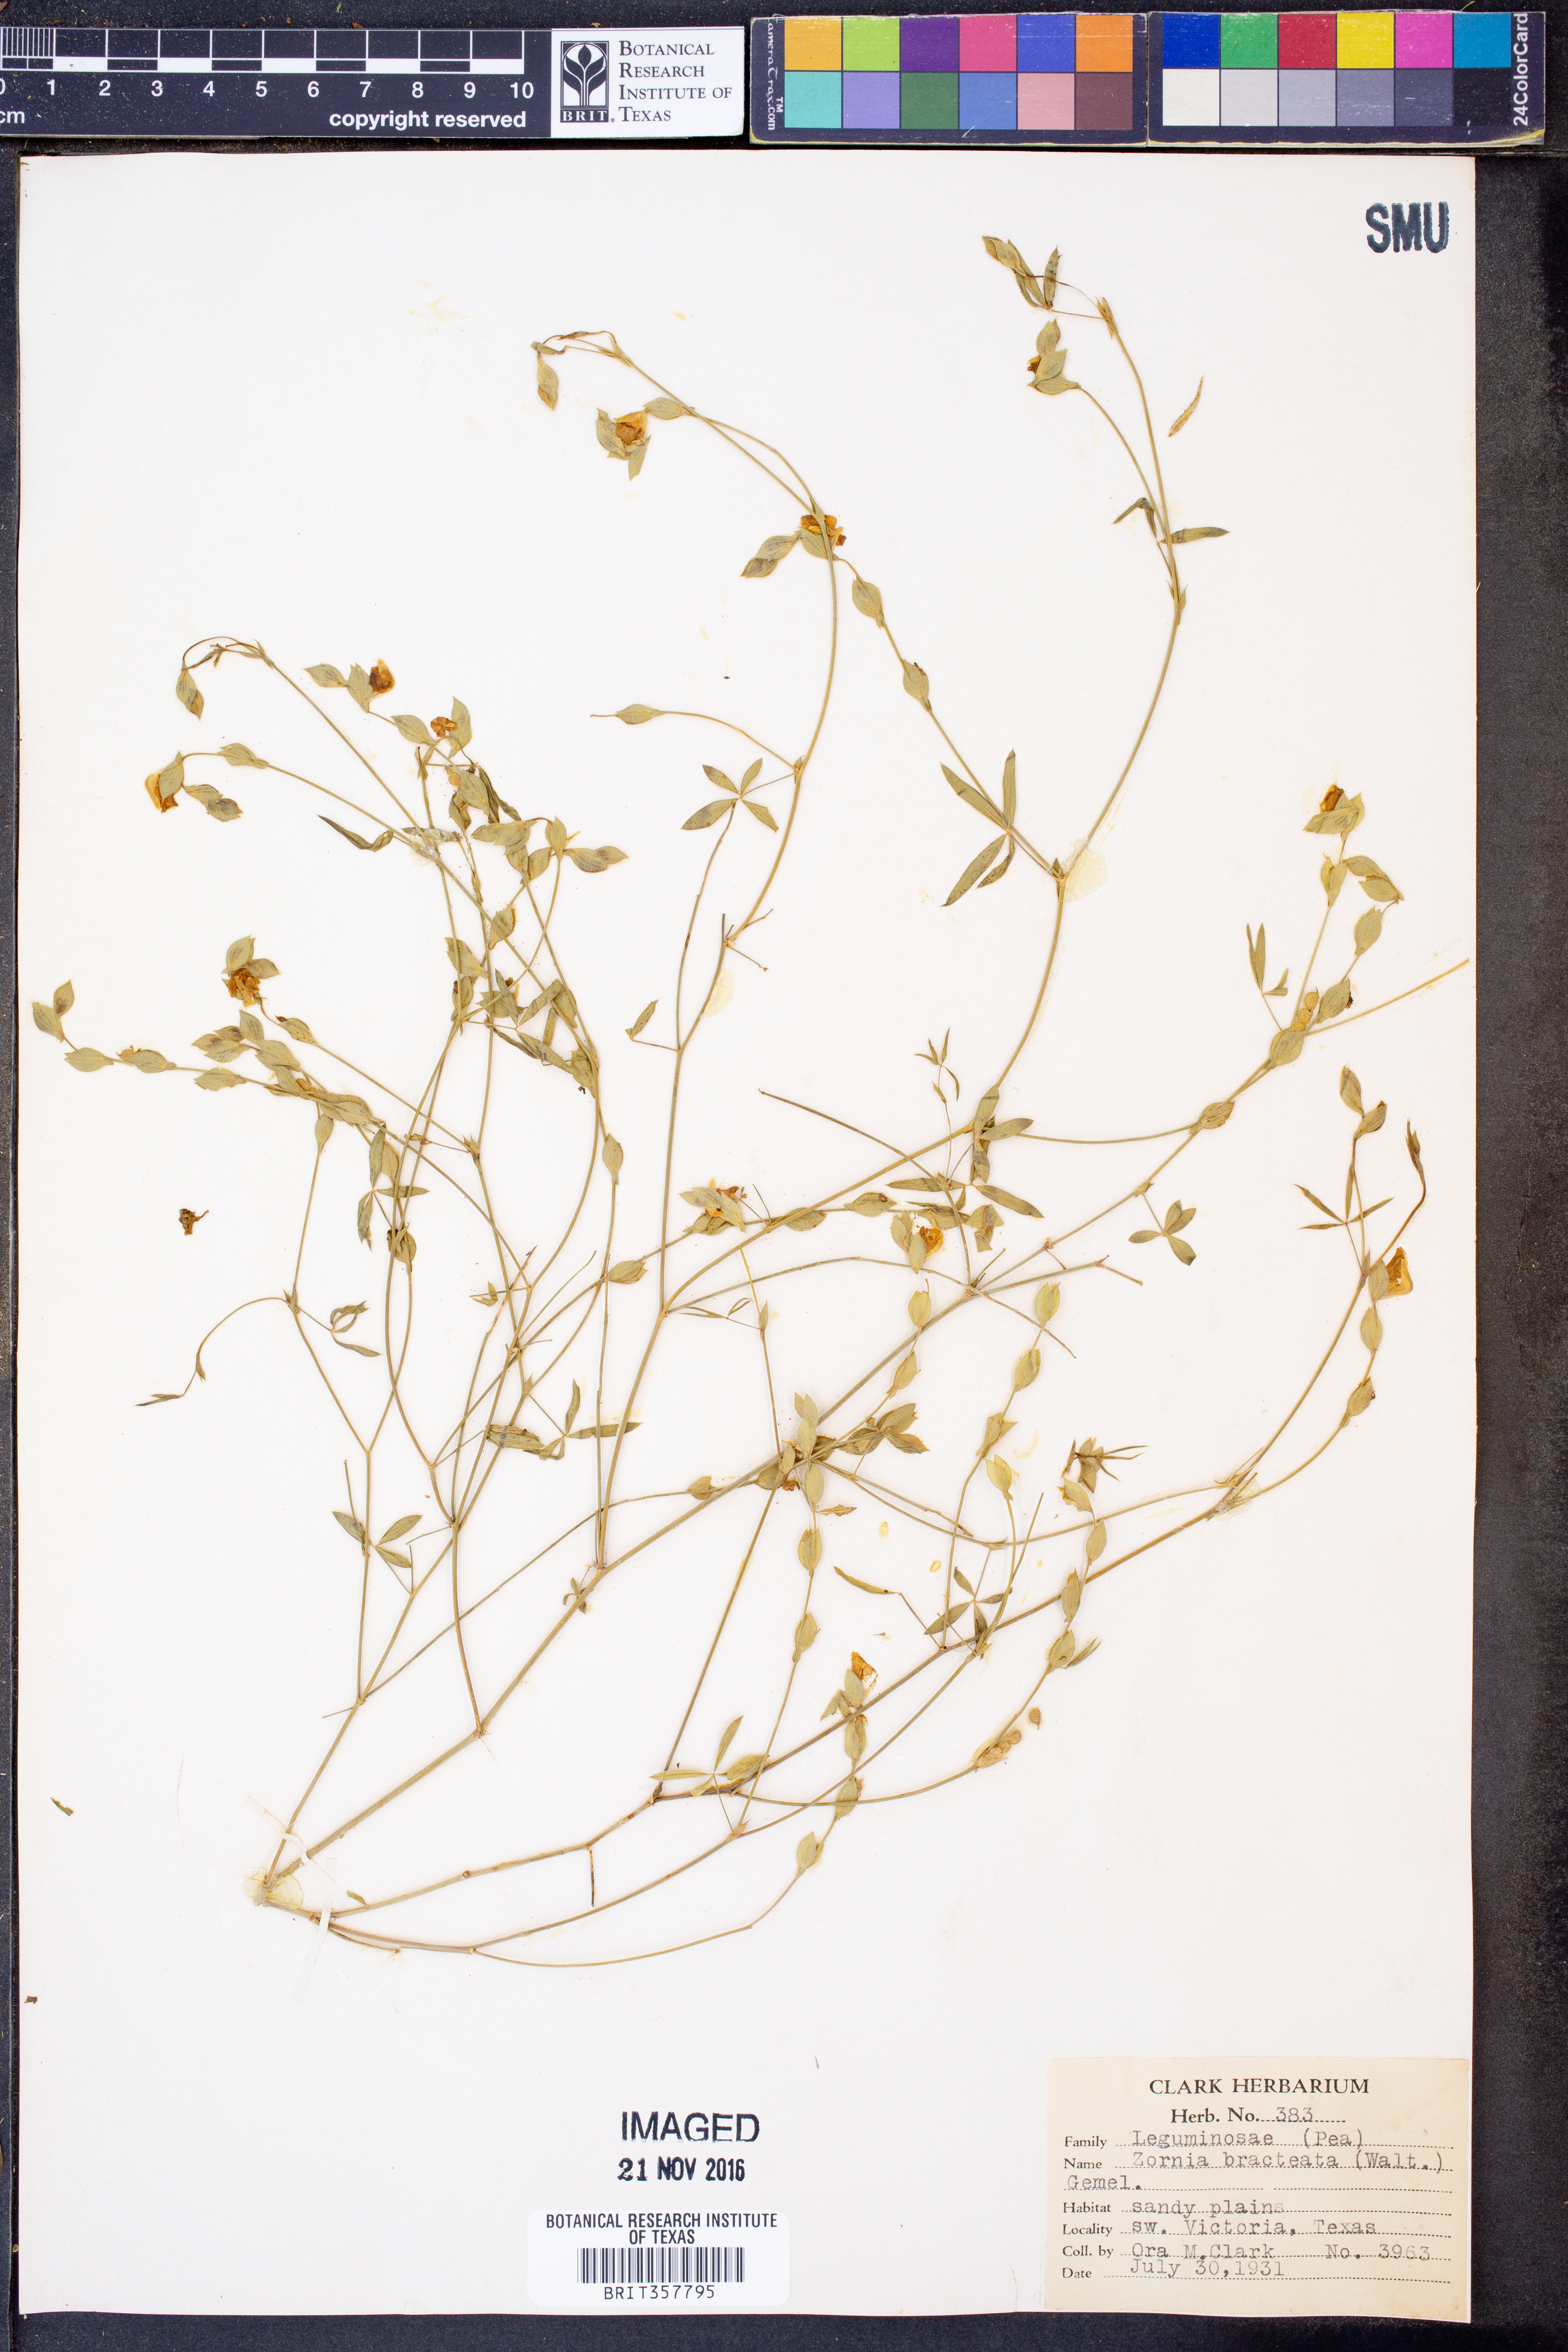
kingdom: Plantae
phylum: Tracheophyta
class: Magnoliopsida
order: Fabales
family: Fabaceae
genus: Zornia
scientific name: Zornia bracteata
